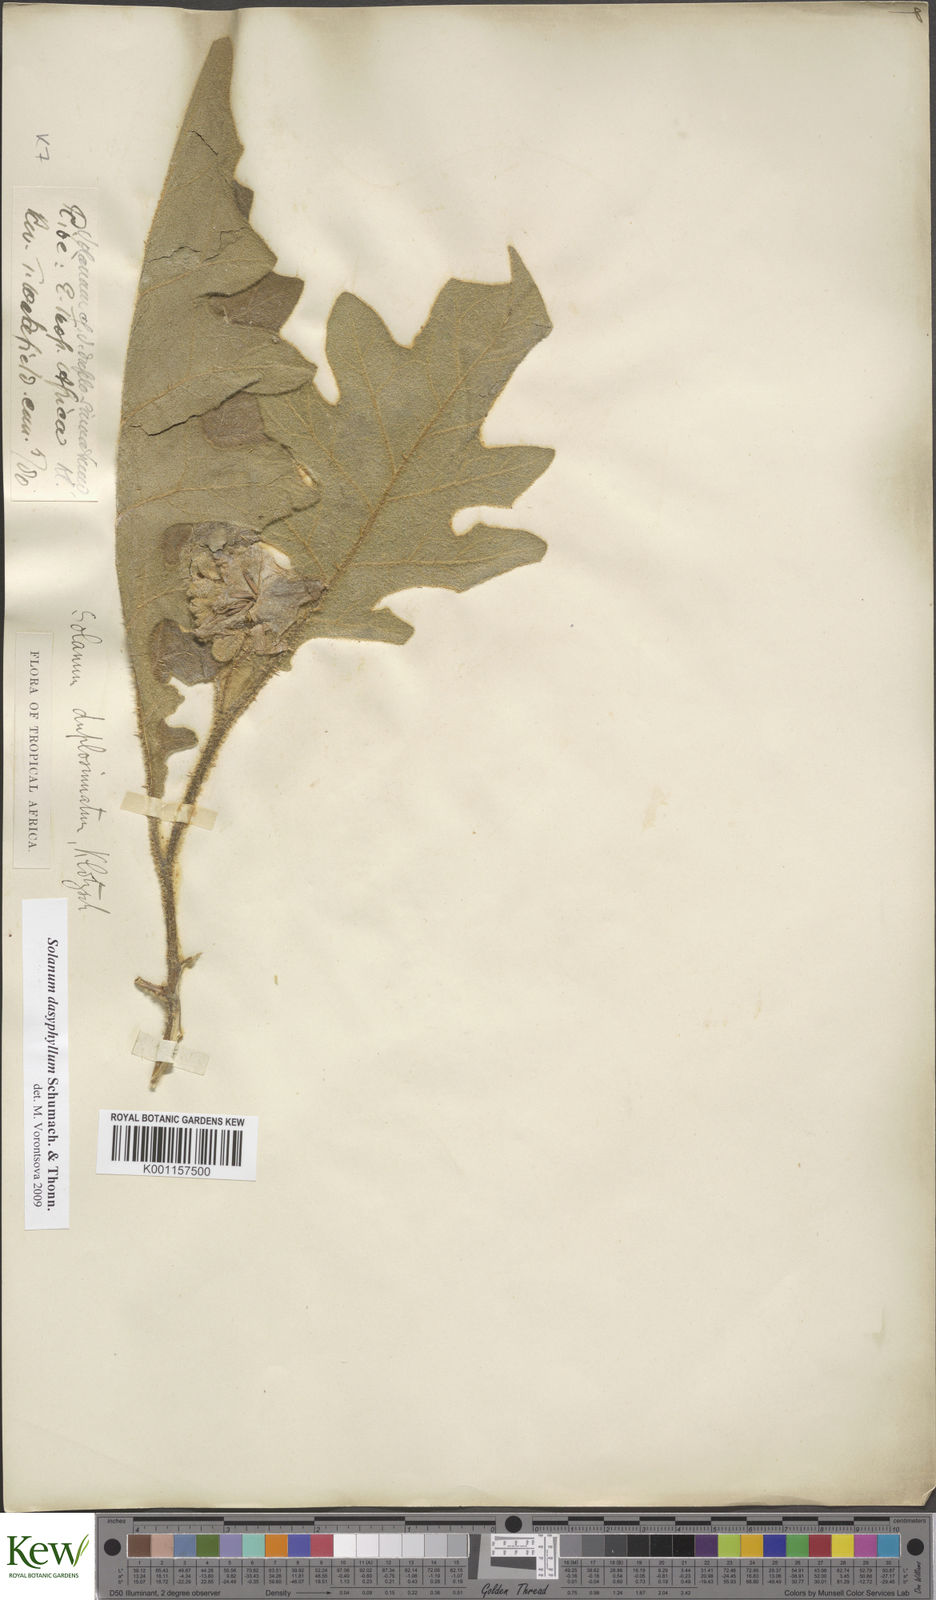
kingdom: Plantae
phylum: Tracheophyta
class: Magnoliopsida
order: Solanales
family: Solanaceae
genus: Solanum
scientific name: Solanum dasyphyllum
